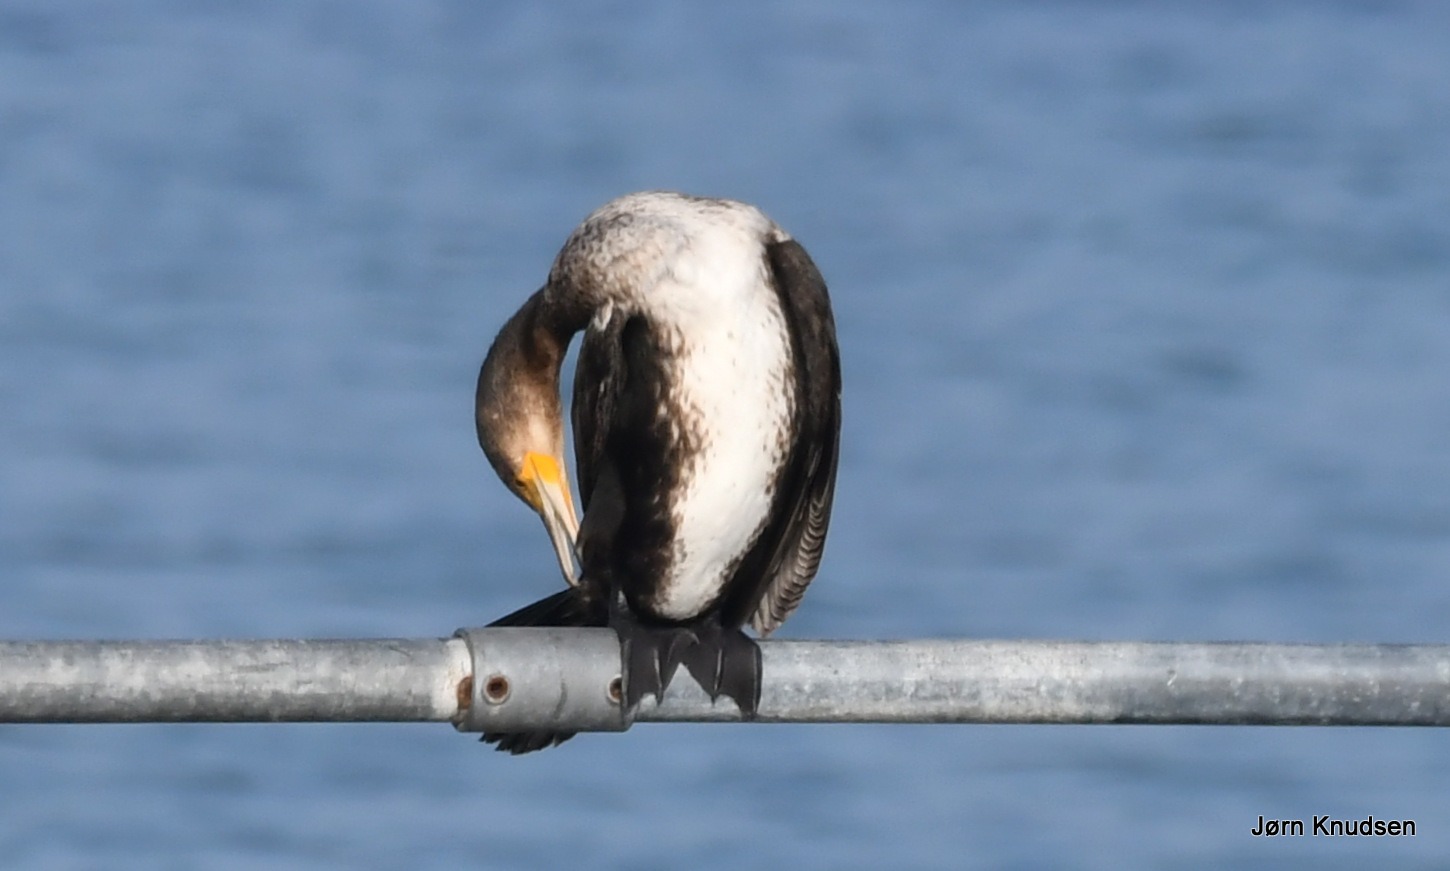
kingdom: Animalia
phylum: Chordata
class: Aves
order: Suliformes
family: Phalacrocoracidae
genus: Phalacrocorax
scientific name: Phalacrocorax carbo
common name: Skarv
